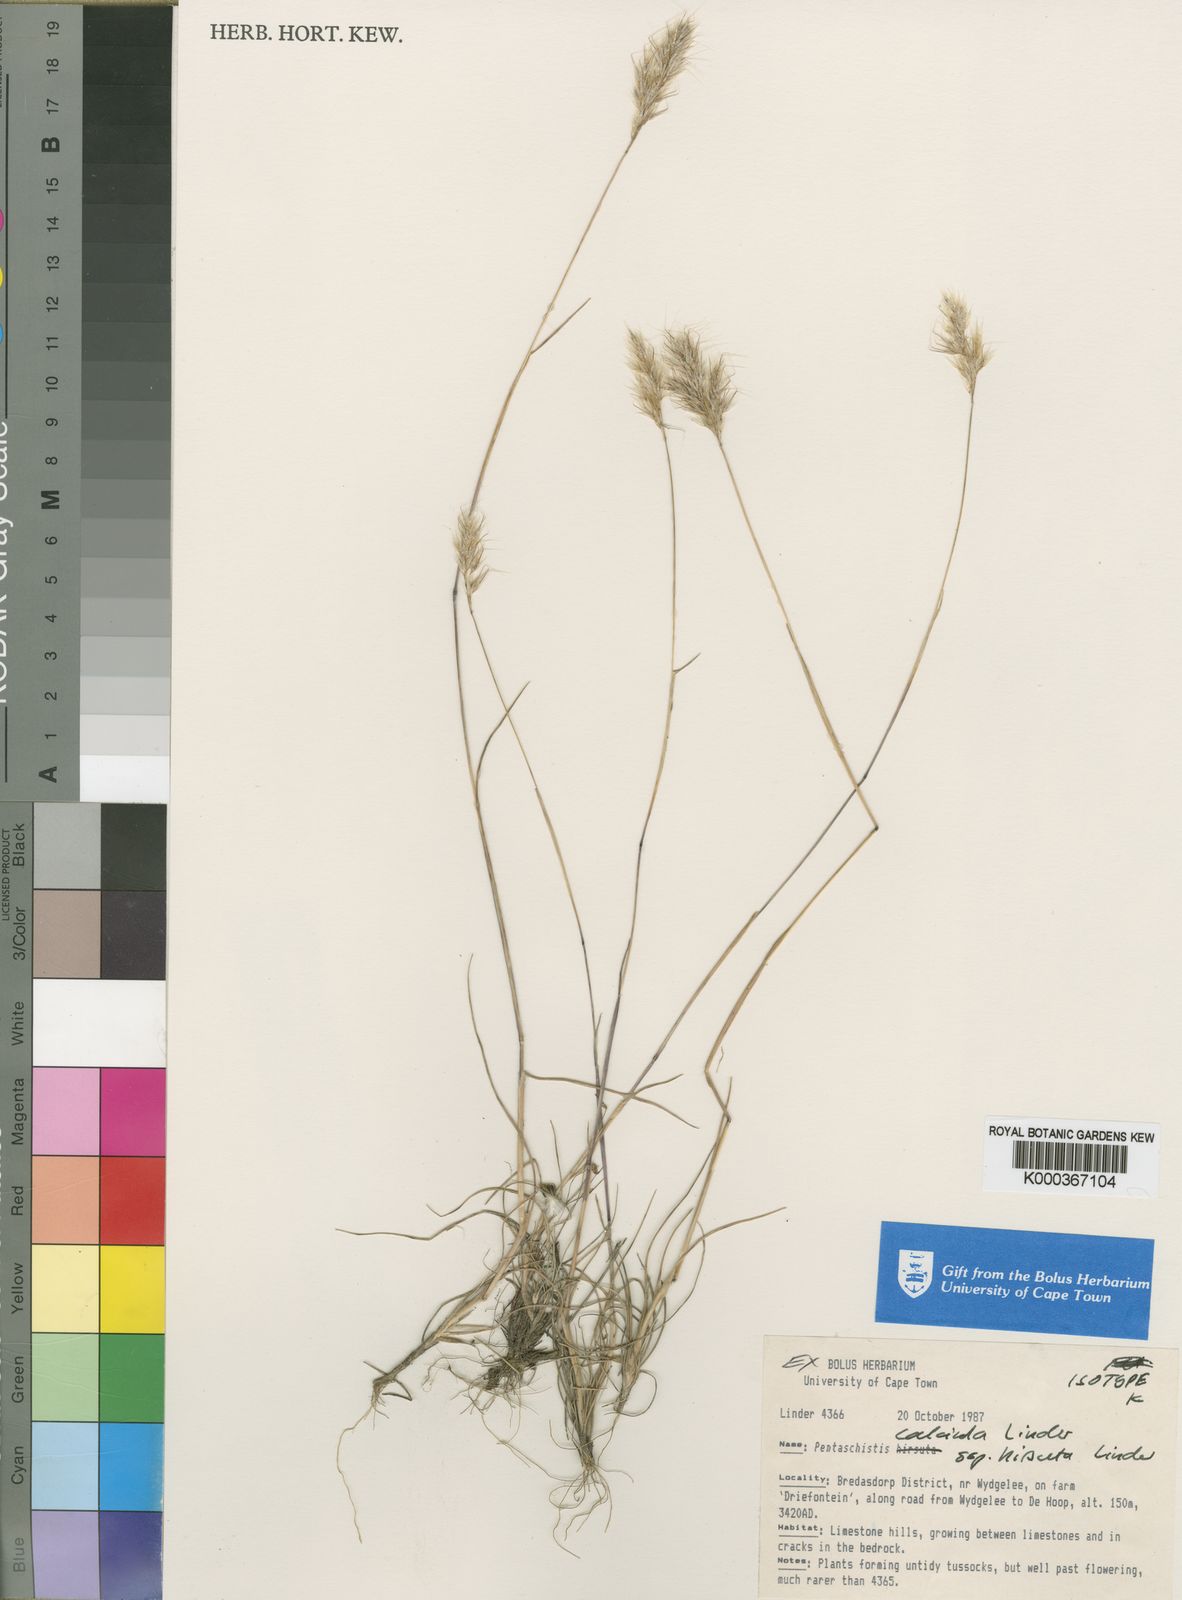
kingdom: Plantae
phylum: Tracheophyta
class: Liliopsida
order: Poales
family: Poaceae
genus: Pentameris
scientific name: Pentameris calcicola
